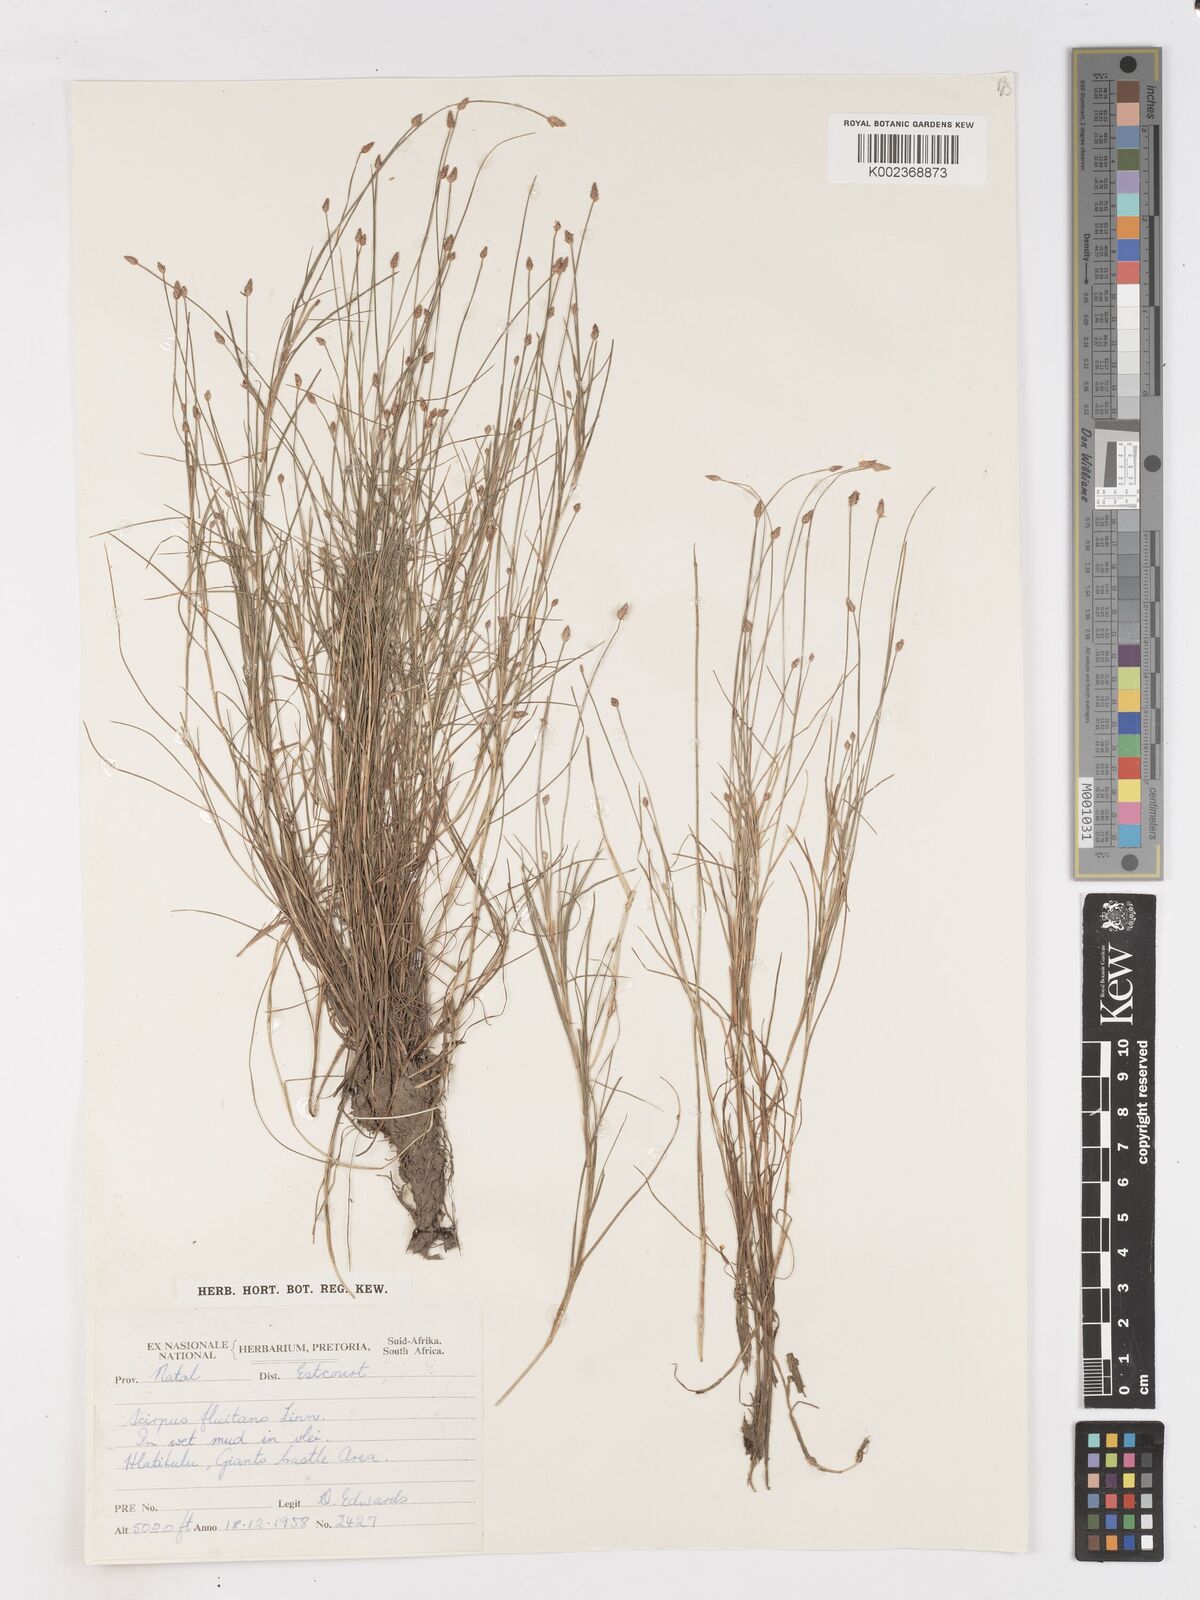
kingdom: Plantae
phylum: Tracheophyta
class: Liliopsida
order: Poales
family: Cyperaceae
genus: Isolepis
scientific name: Isolepis fluitans
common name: Floating club-rush
